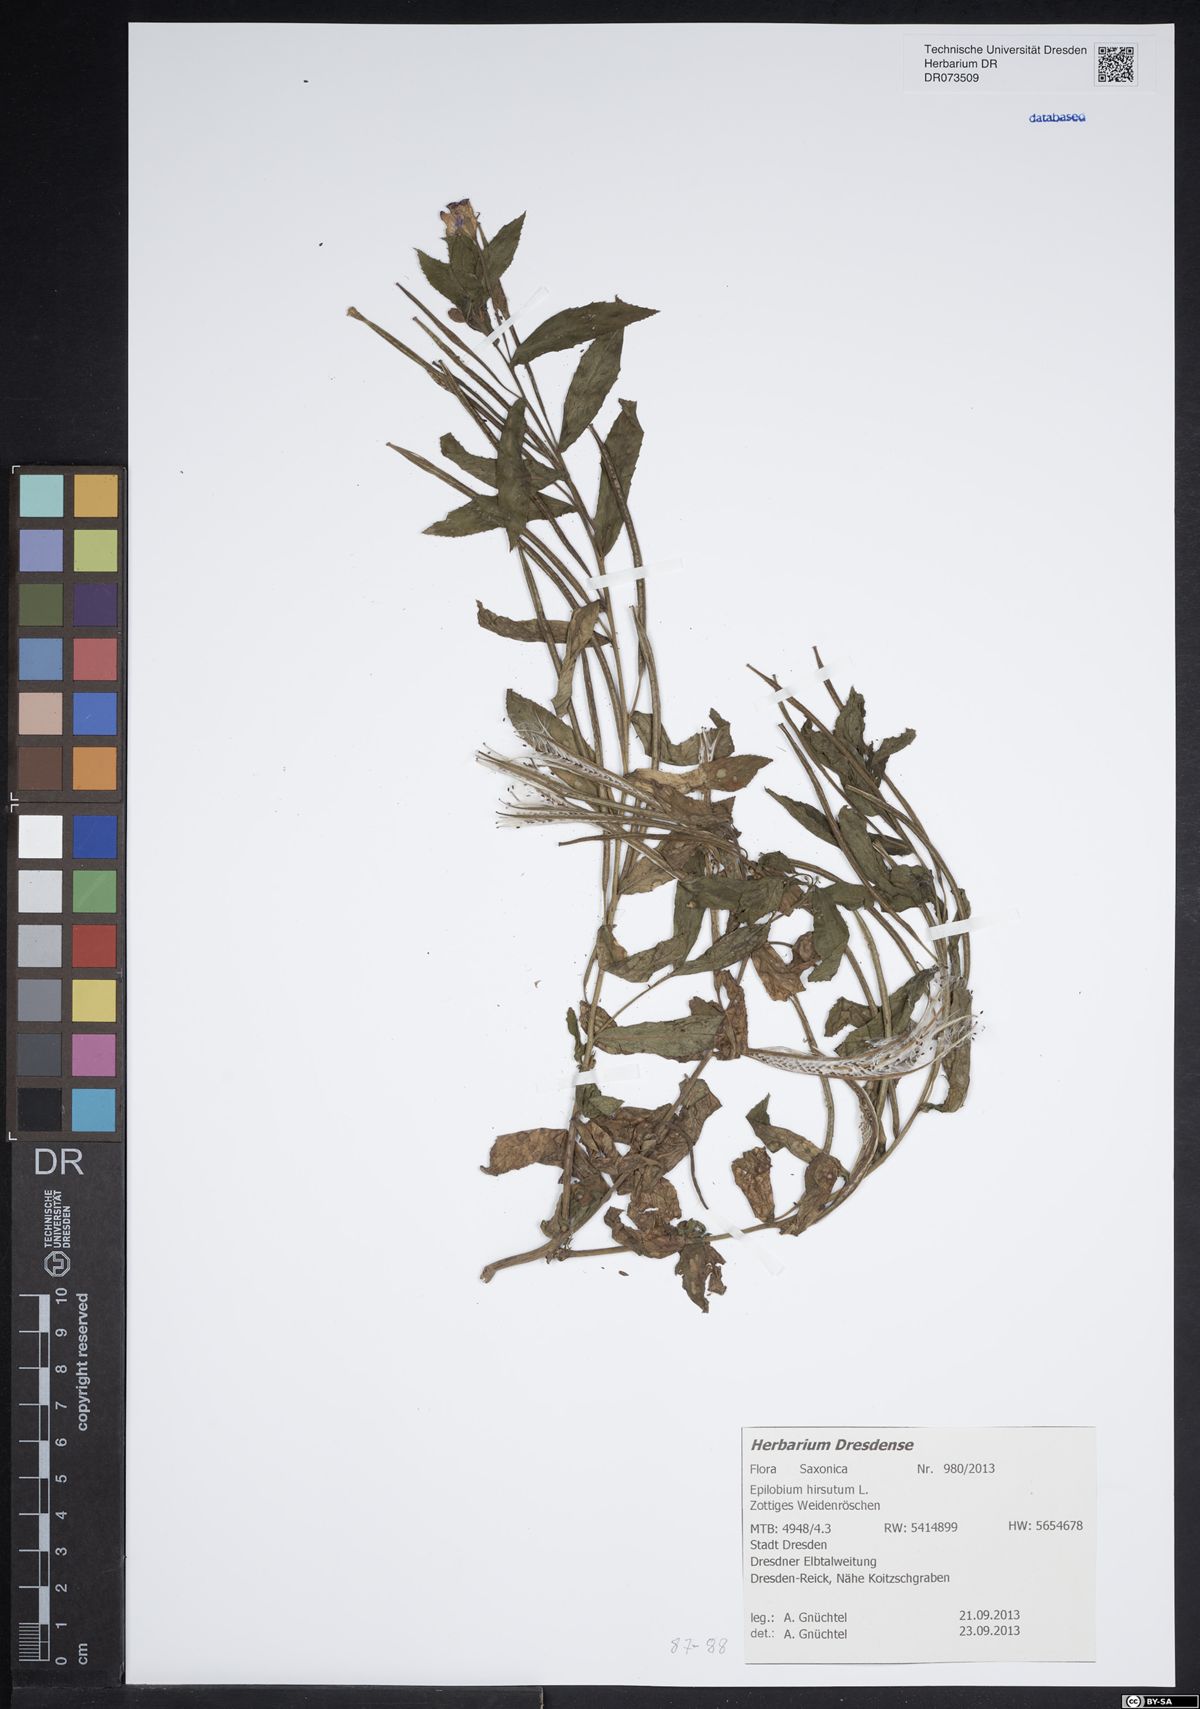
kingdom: Plantae
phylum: Tracheophyta
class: Magnoliopsida
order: Myrtales
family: Onagraceae
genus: Epilobium
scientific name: Epilobium hirsutum
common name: Great willowherb
